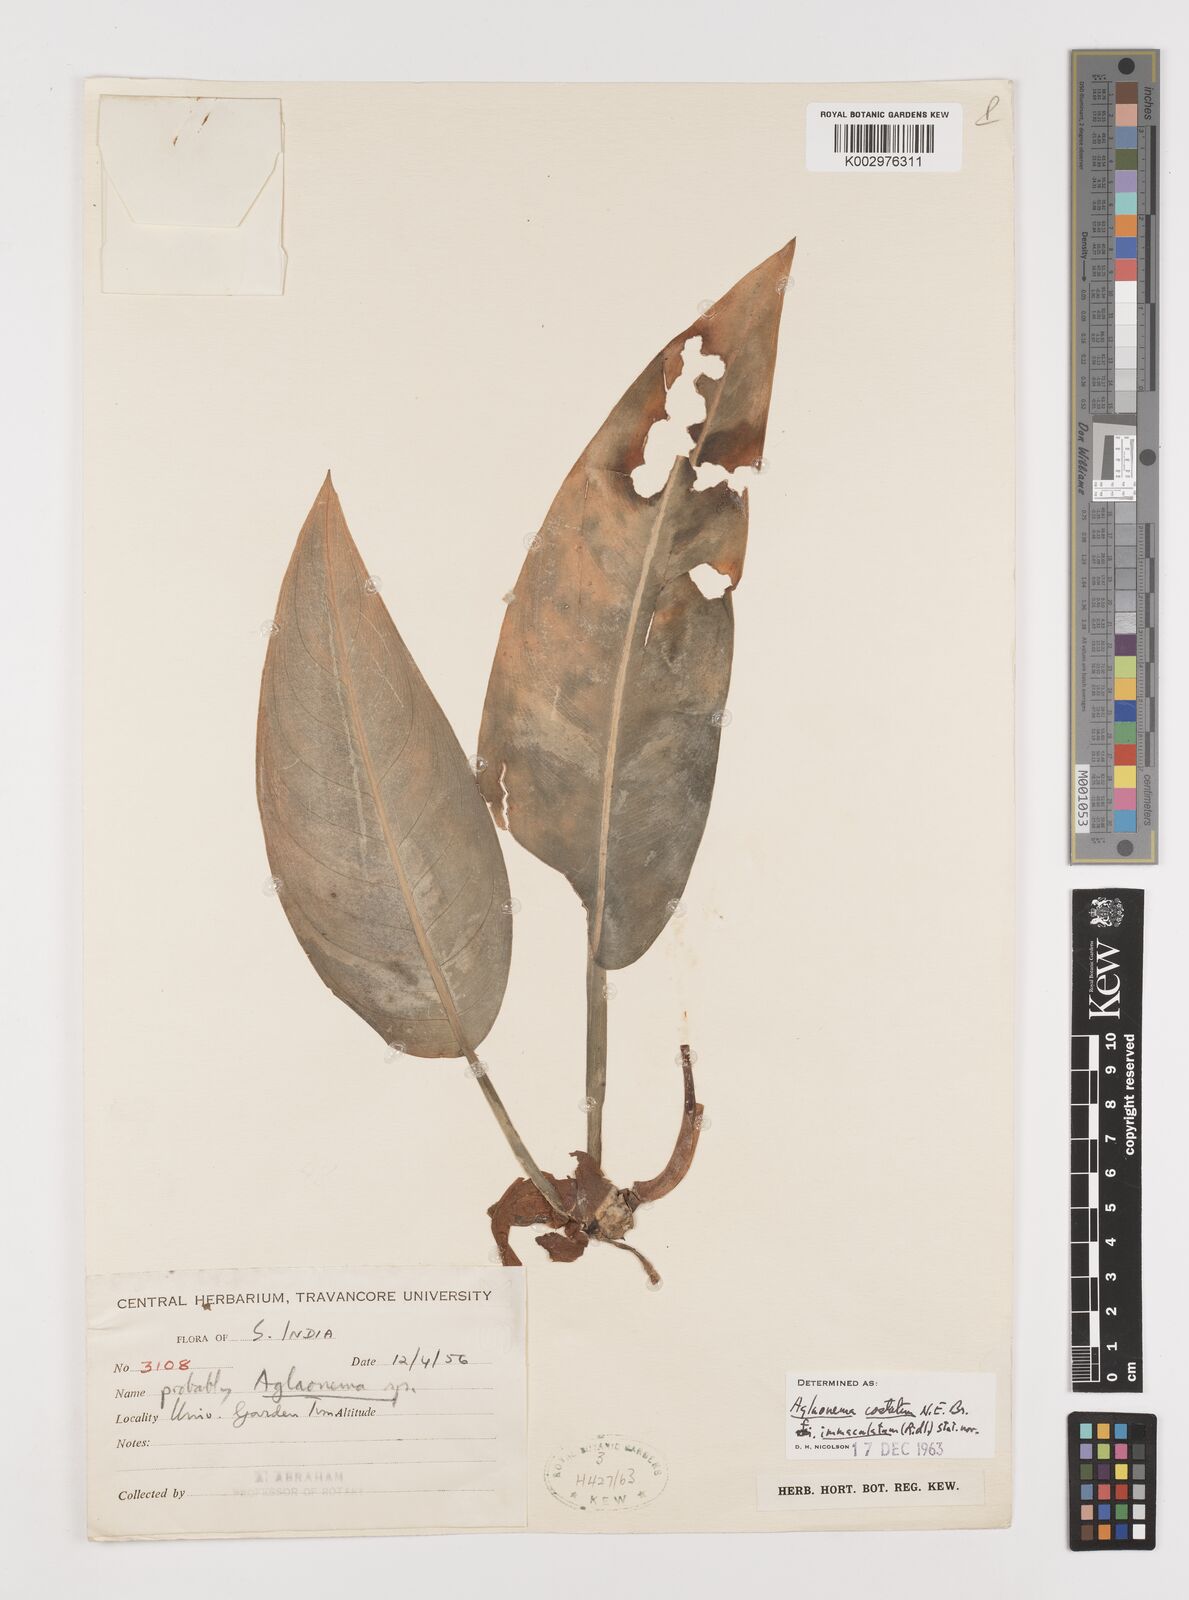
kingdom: Plantae
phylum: Tracheophyta
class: Liliopsida
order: Alismatales
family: Araceae
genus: Aglaonema
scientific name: Aglaonema costatum
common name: Chinese evergreen
